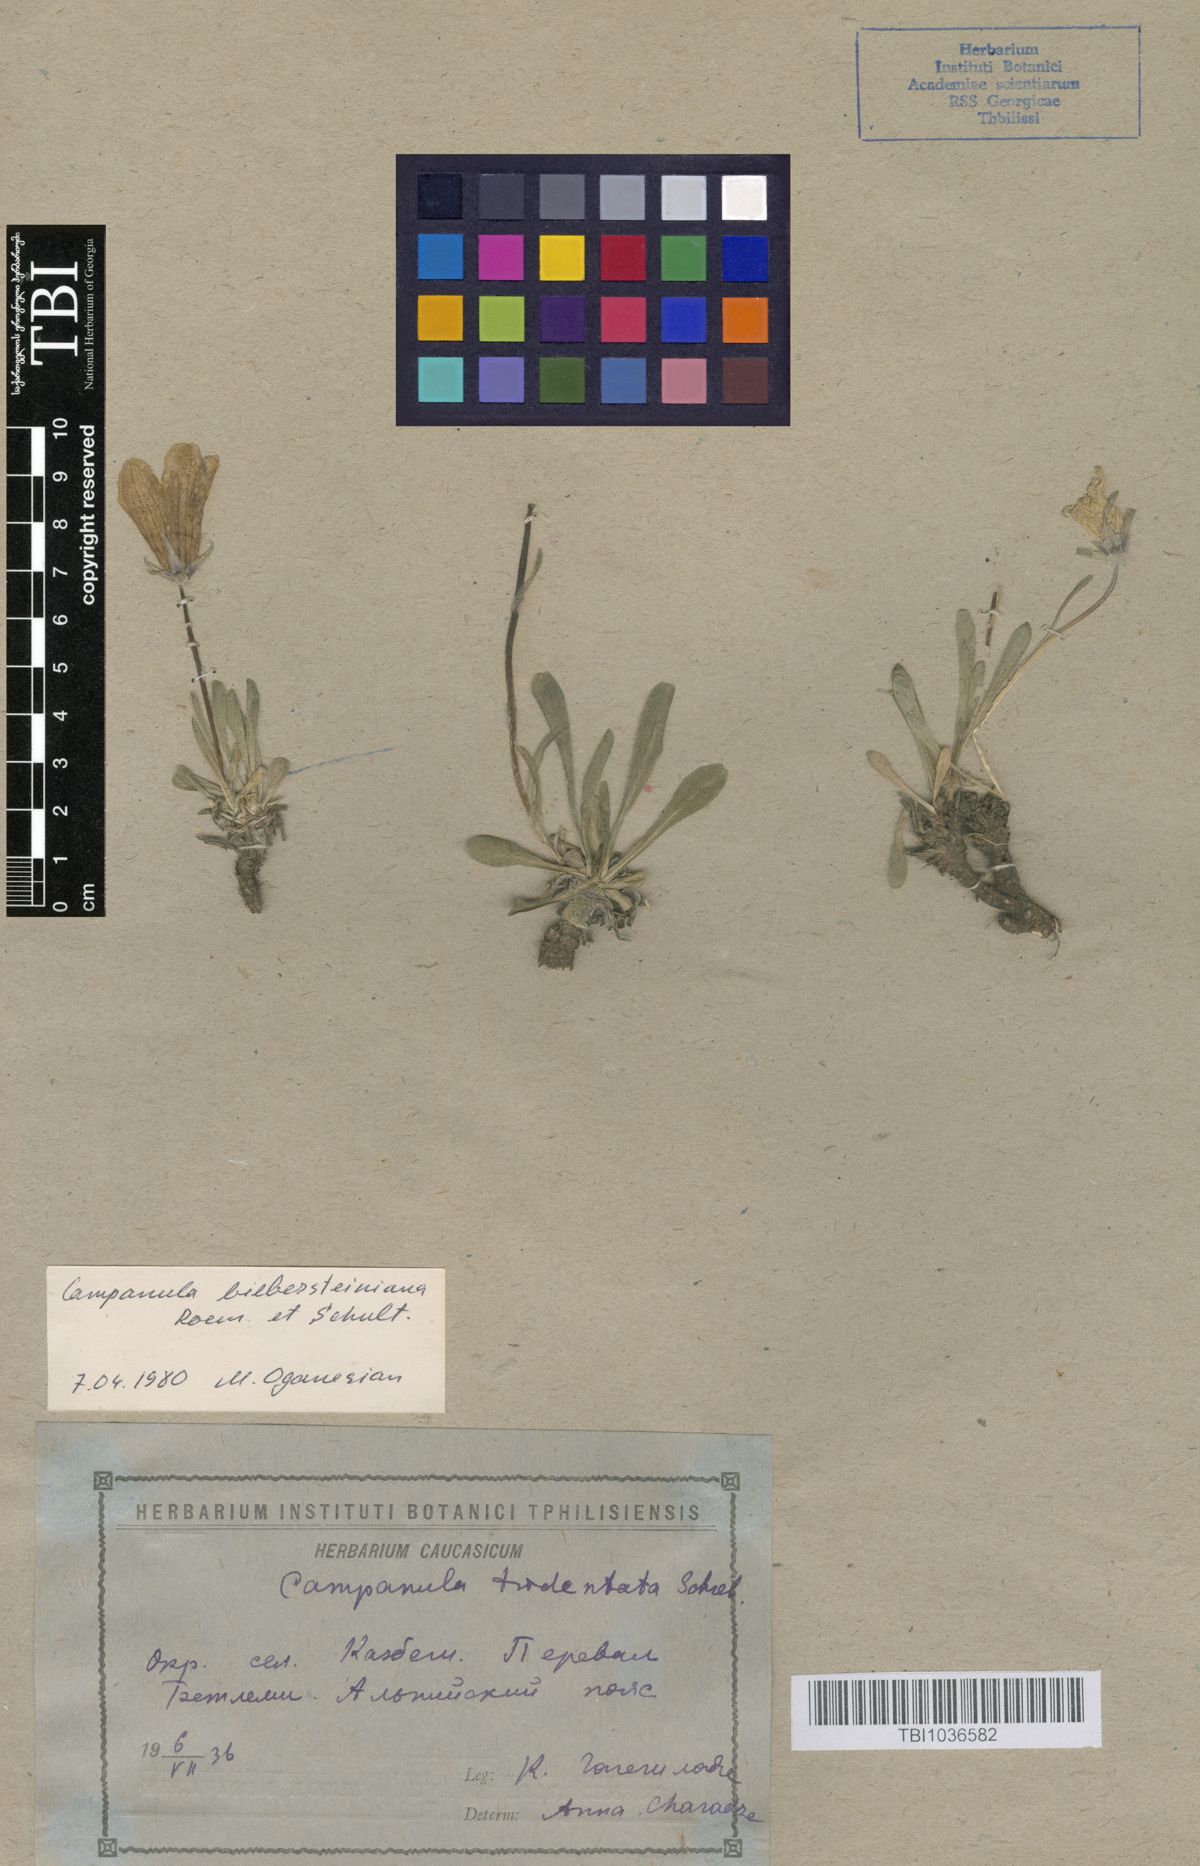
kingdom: Plantae
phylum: Tracheophyta
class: Magnoliopsida
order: Asterales
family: Campanulaceae
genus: Campanula
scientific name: Campanula tridentata
